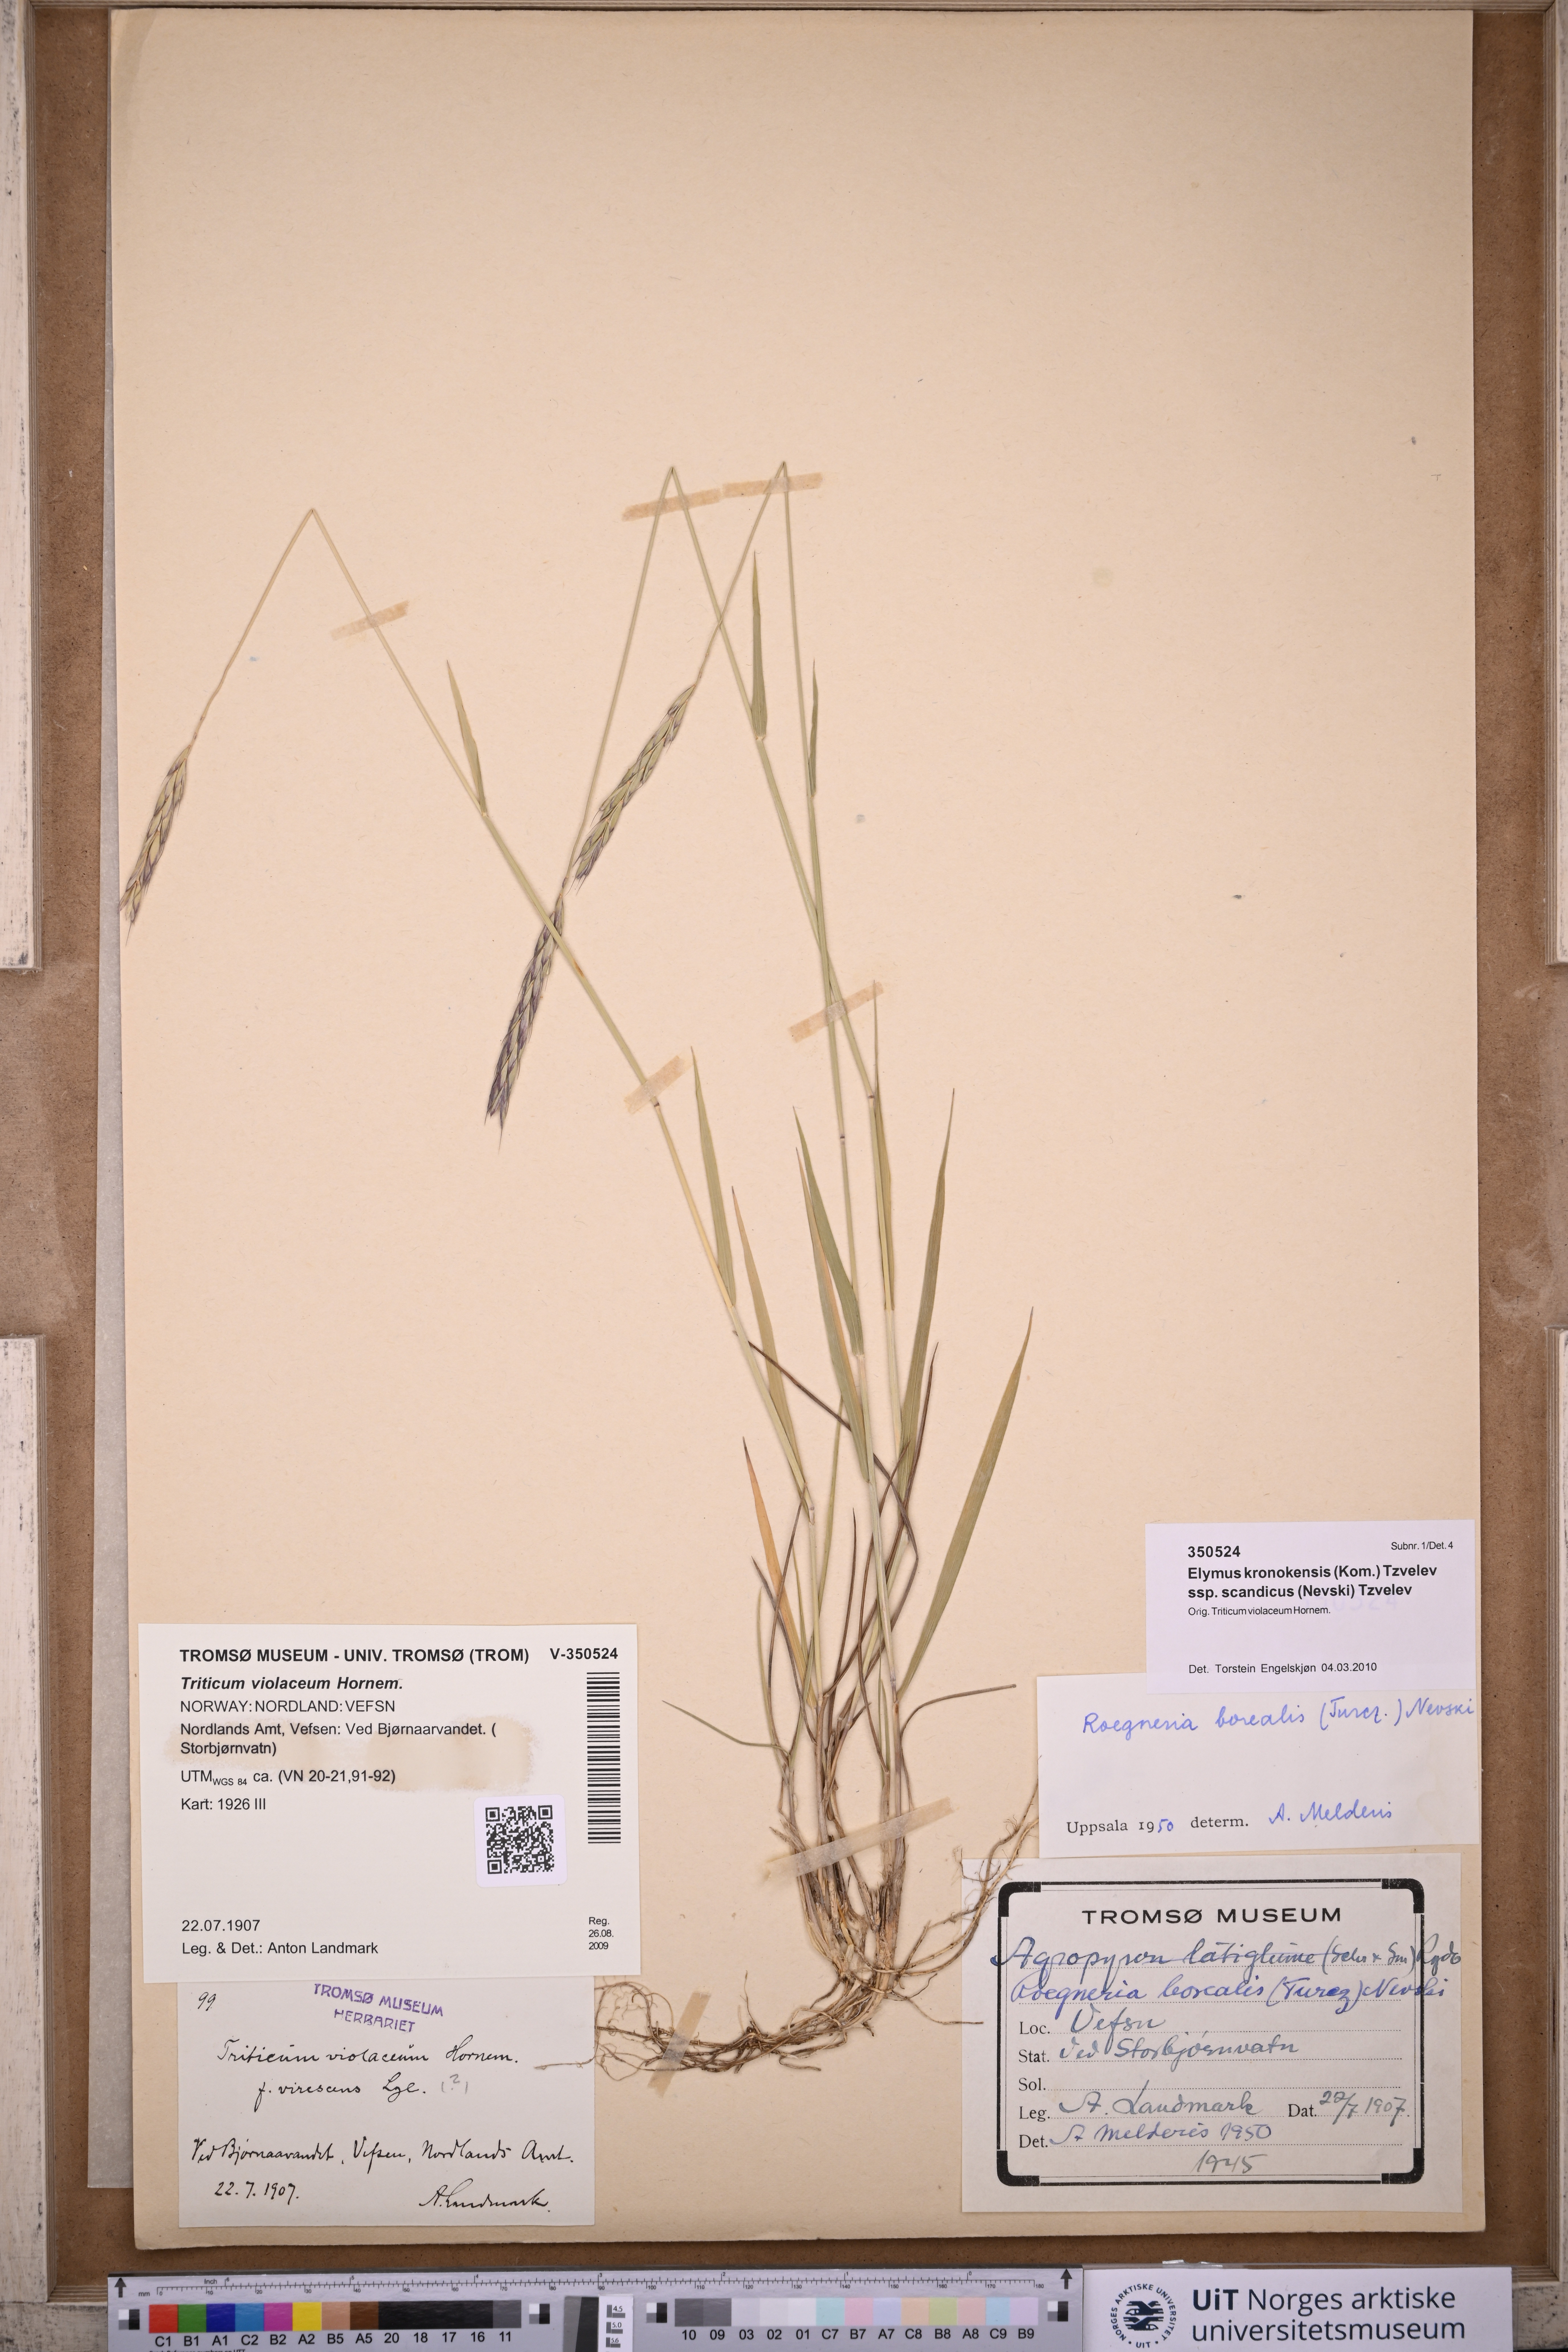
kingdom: Plantae
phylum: Tracheophyta
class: Liliopsida
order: Poales
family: Poaceae
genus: Elymus
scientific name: Elymus macrourus
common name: Northern wheatgrass
